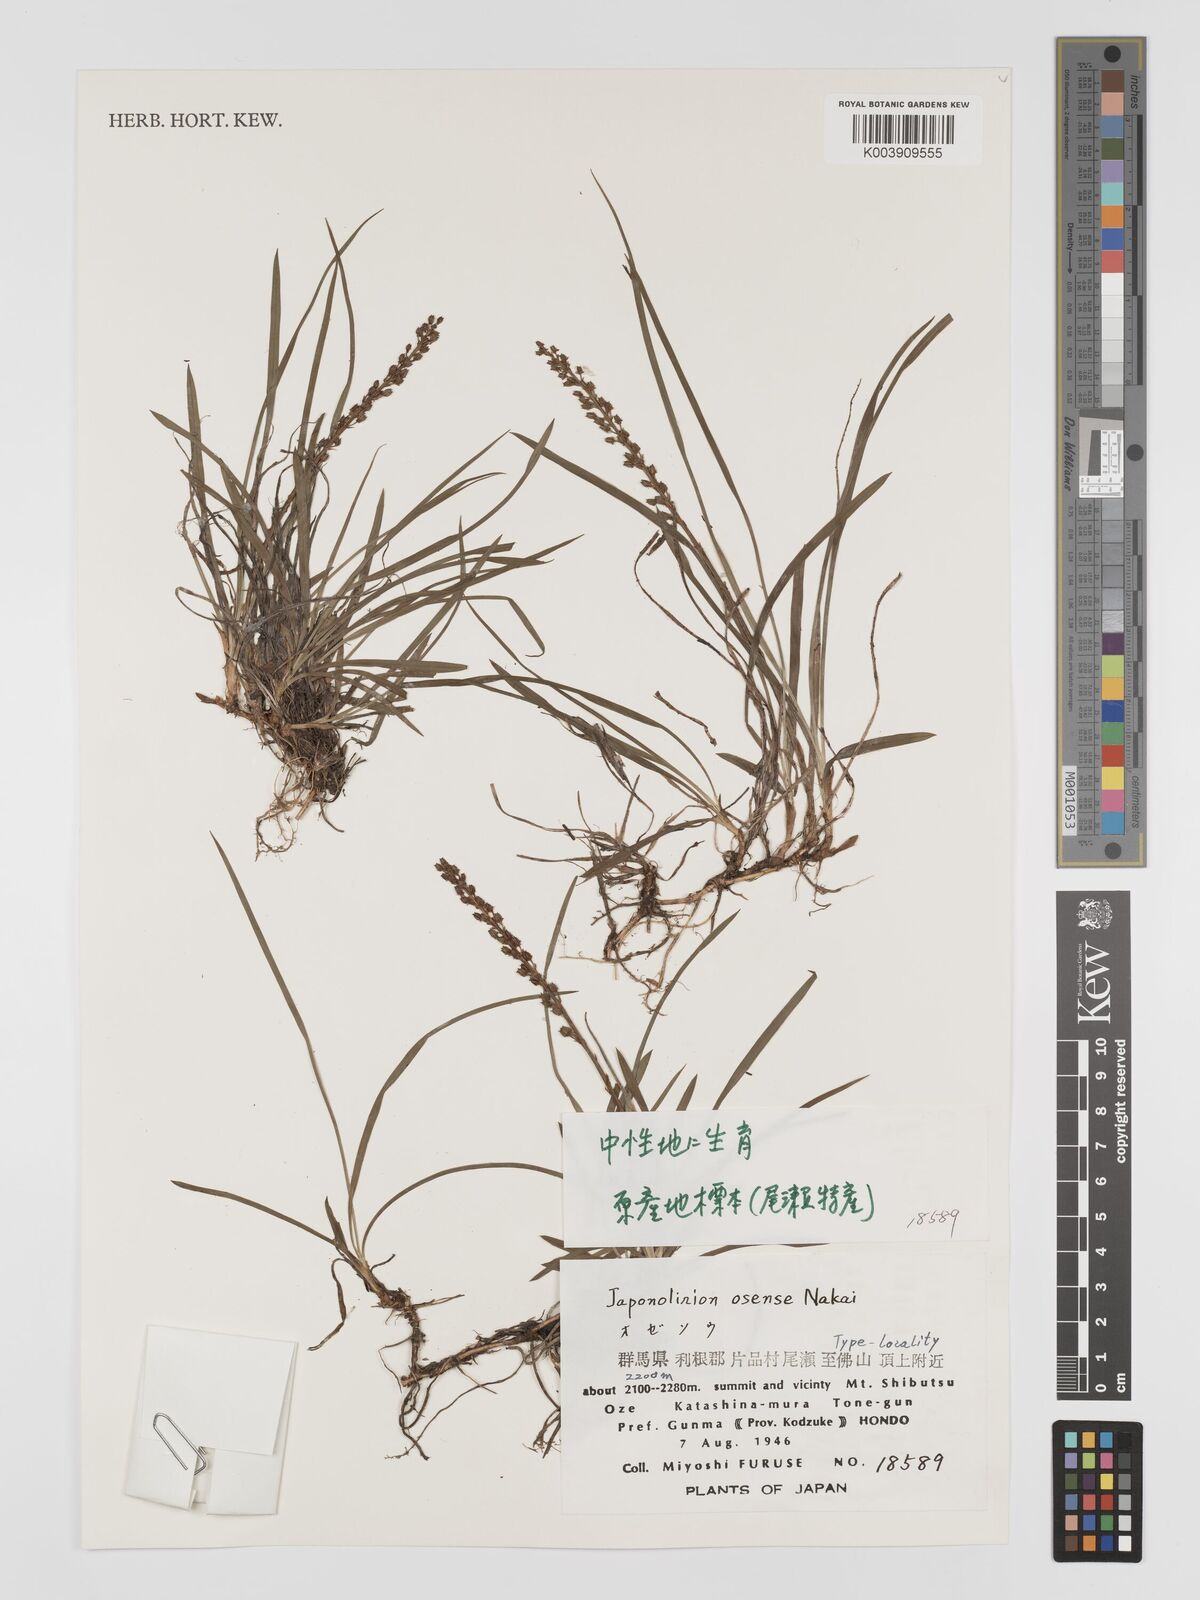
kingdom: Plantae
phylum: Tracheophyta
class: Liliopsida
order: Petrosaviales
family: Petrosaviaceae
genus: Japonolirion
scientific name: Japonolirion osense
